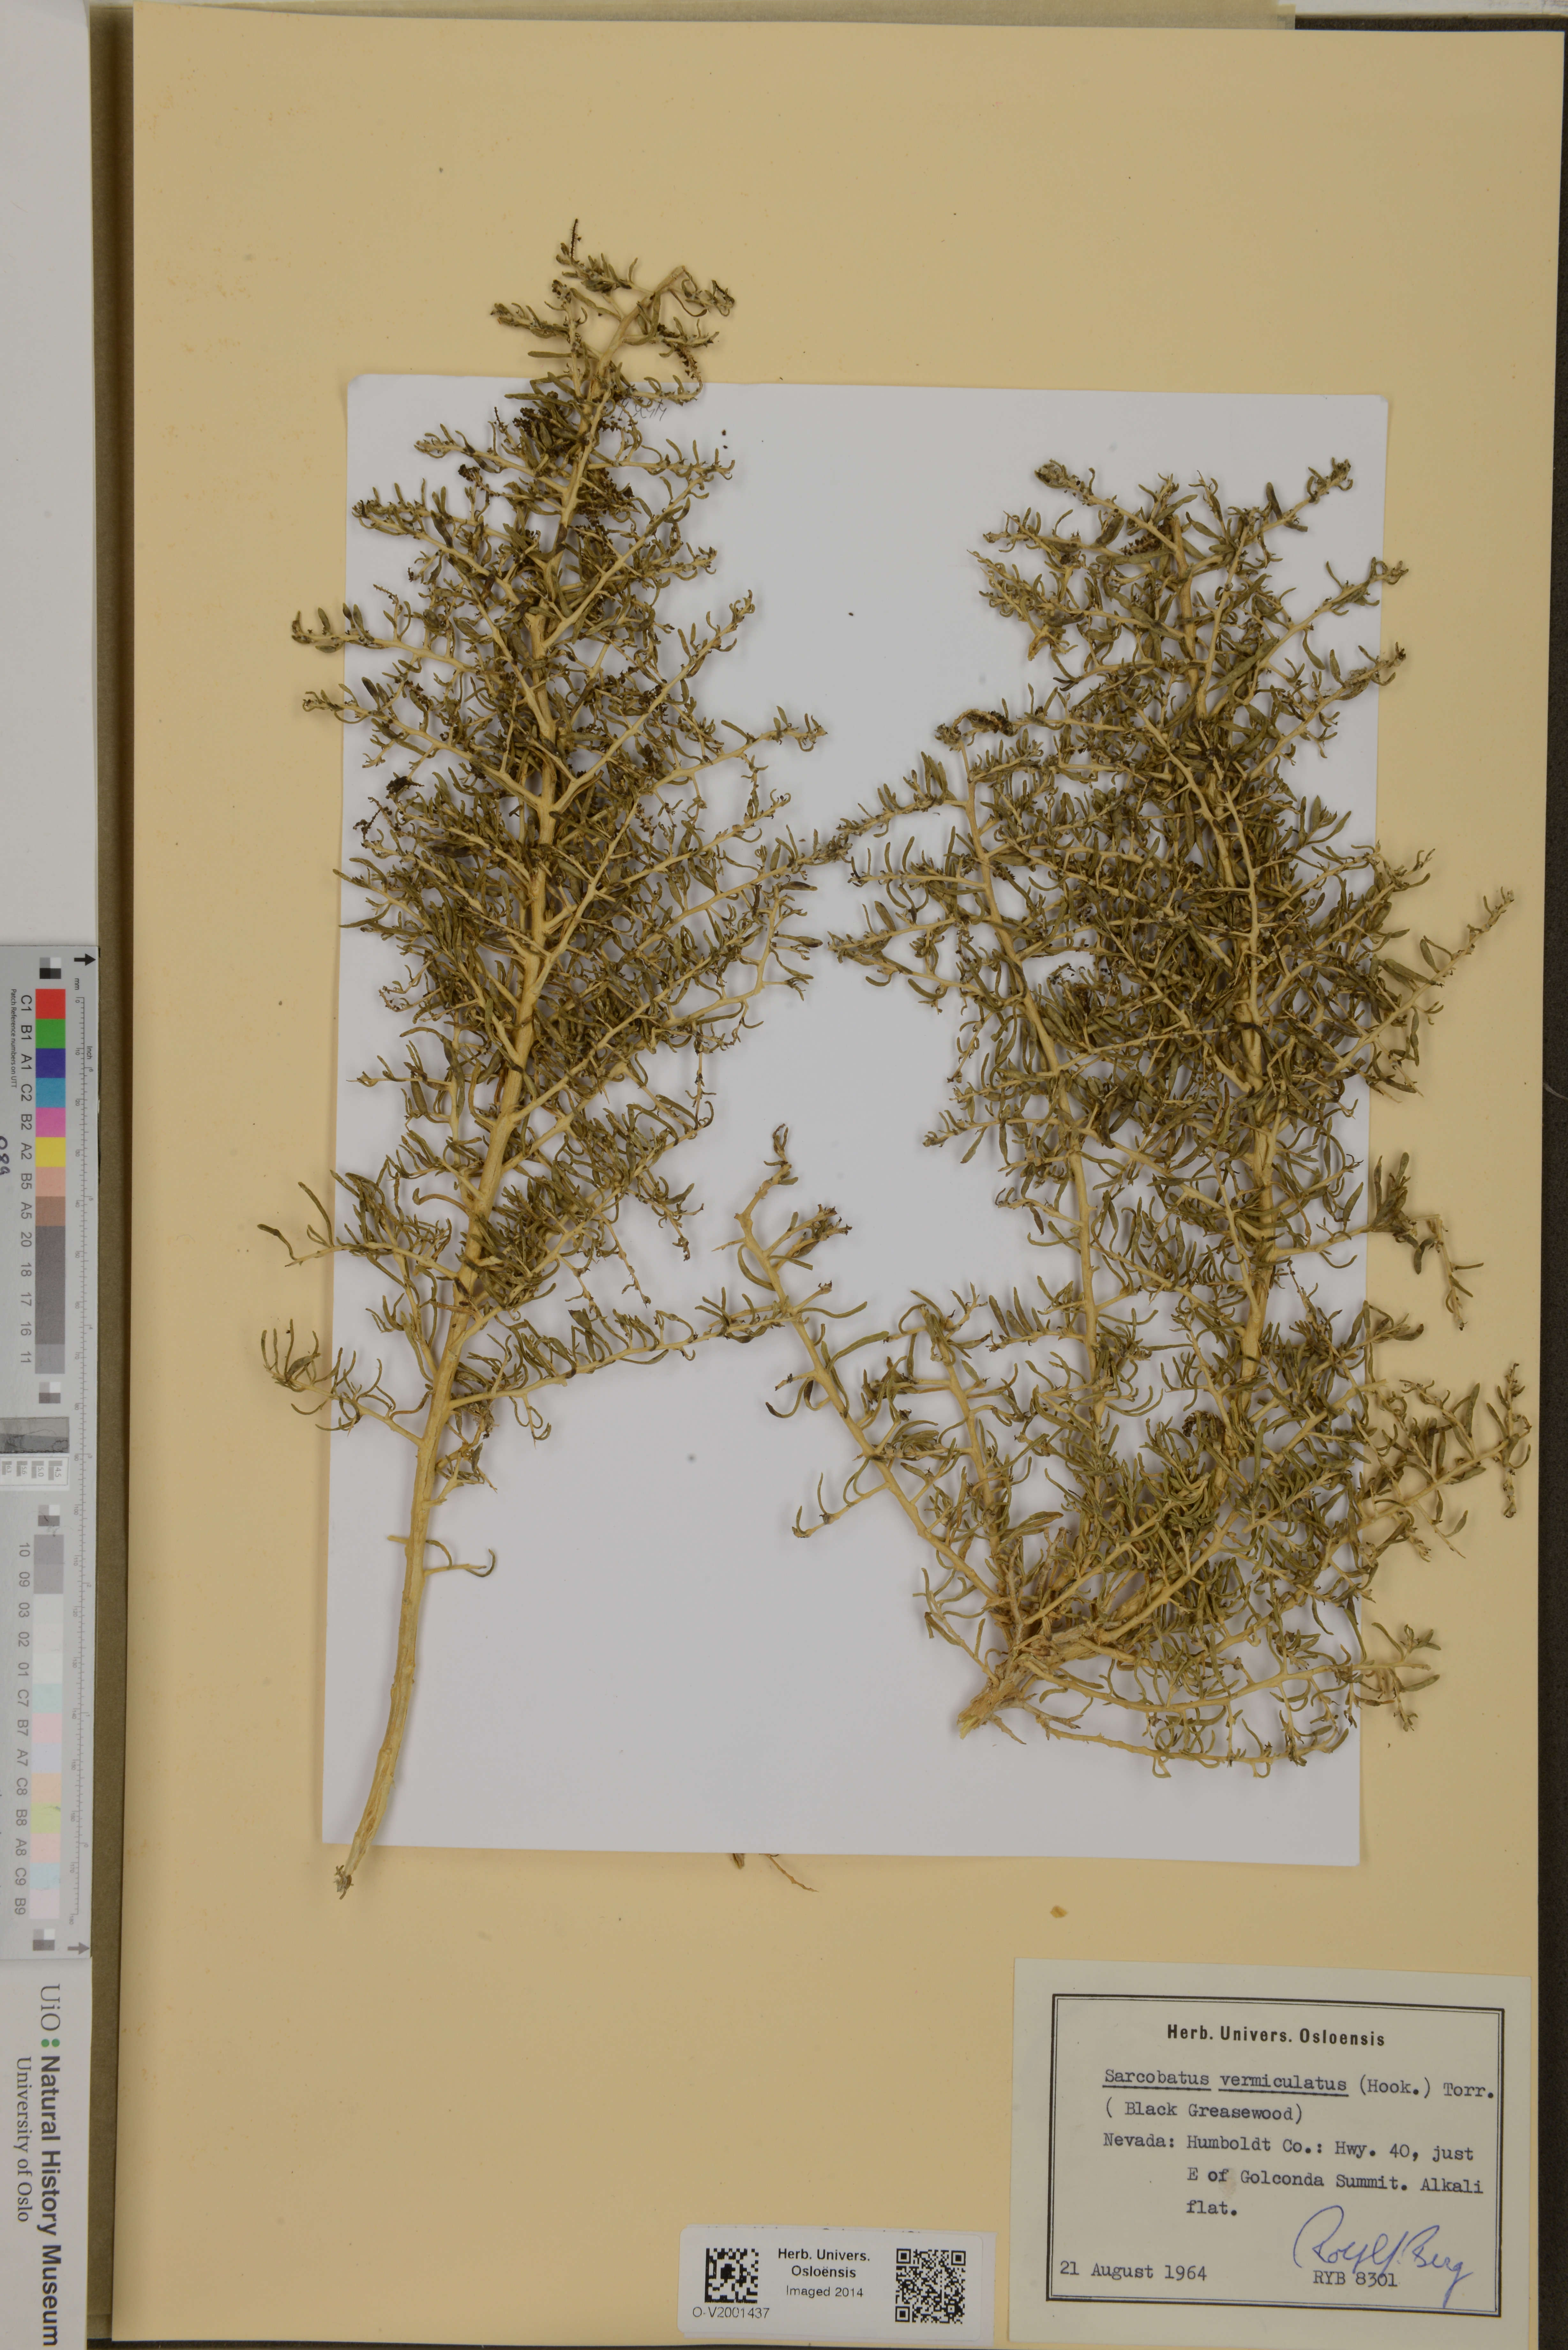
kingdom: Plantae
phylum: Tracheophyta
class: Magnoliopsida
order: Caryophyllales
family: Sarcobataceae
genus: Sarcobatus
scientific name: Sarcobatus vermiculatus
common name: Greasewood
